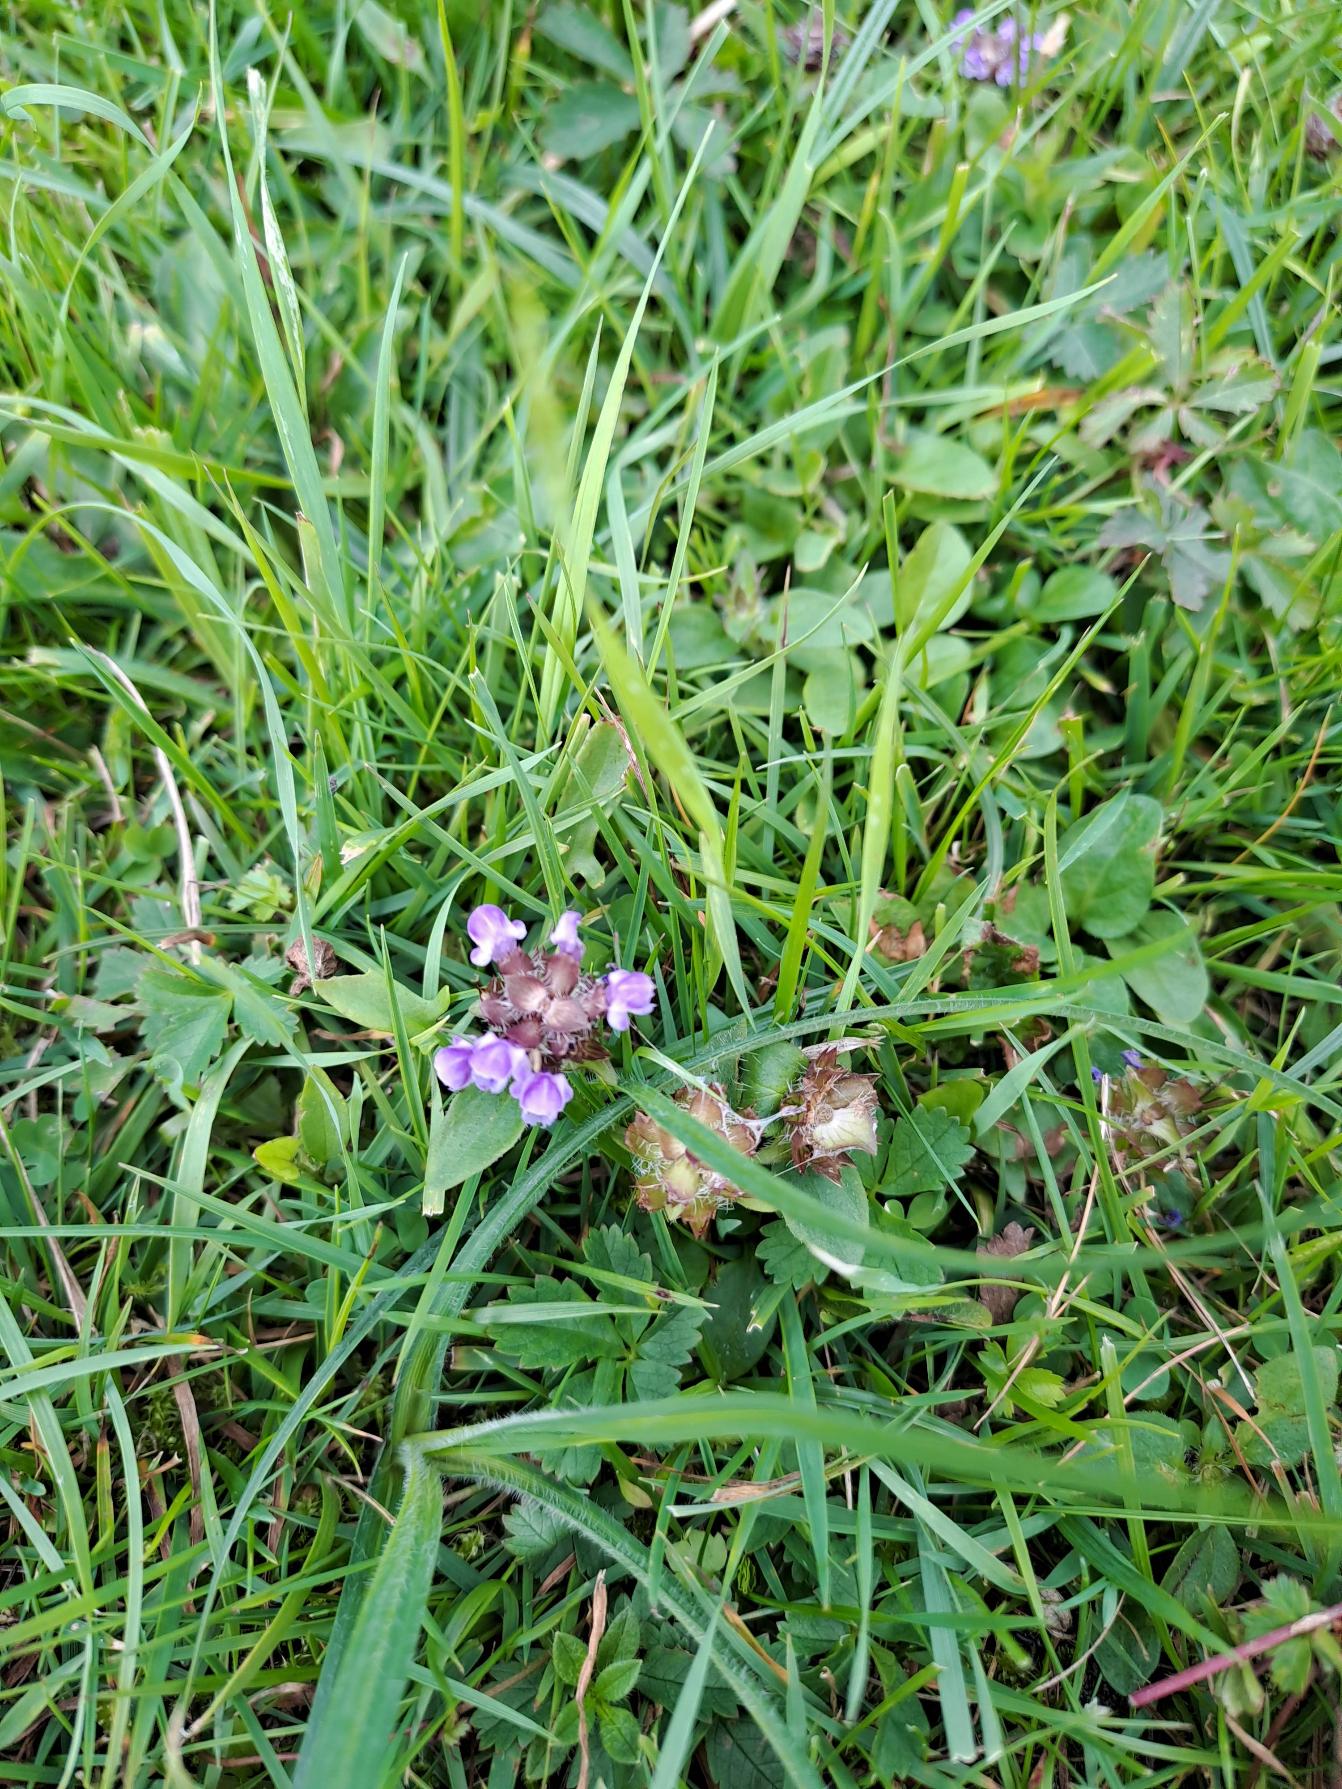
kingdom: Plantae
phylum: Tracheophyta
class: Magnoliopsida
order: Lamiales
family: Lamiaceae
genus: Prunella
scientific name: Prunella vulgaris
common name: Almindelig brunelle
